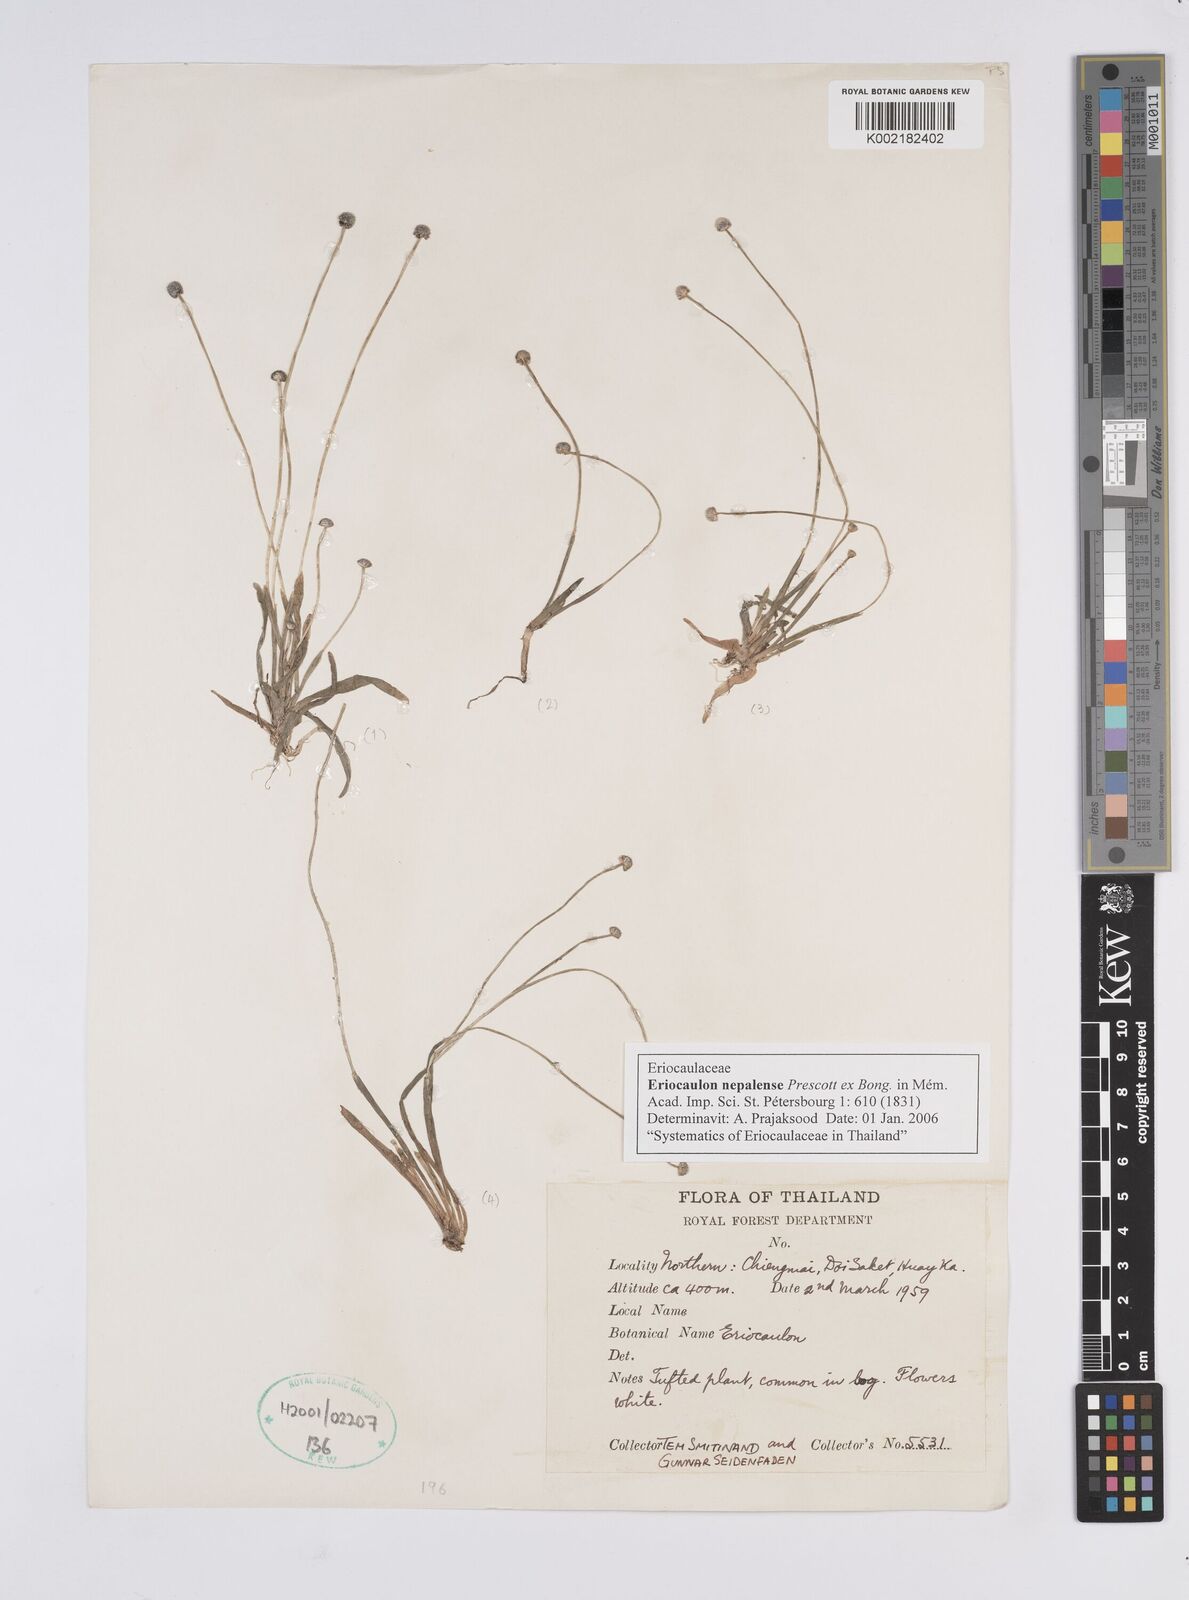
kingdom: Plantae
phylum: Tracheophyta
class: Liliopsida
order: Poales
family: Eriocaulaceae
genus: Eriocaulon
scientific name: Eriocaulon nepalense
